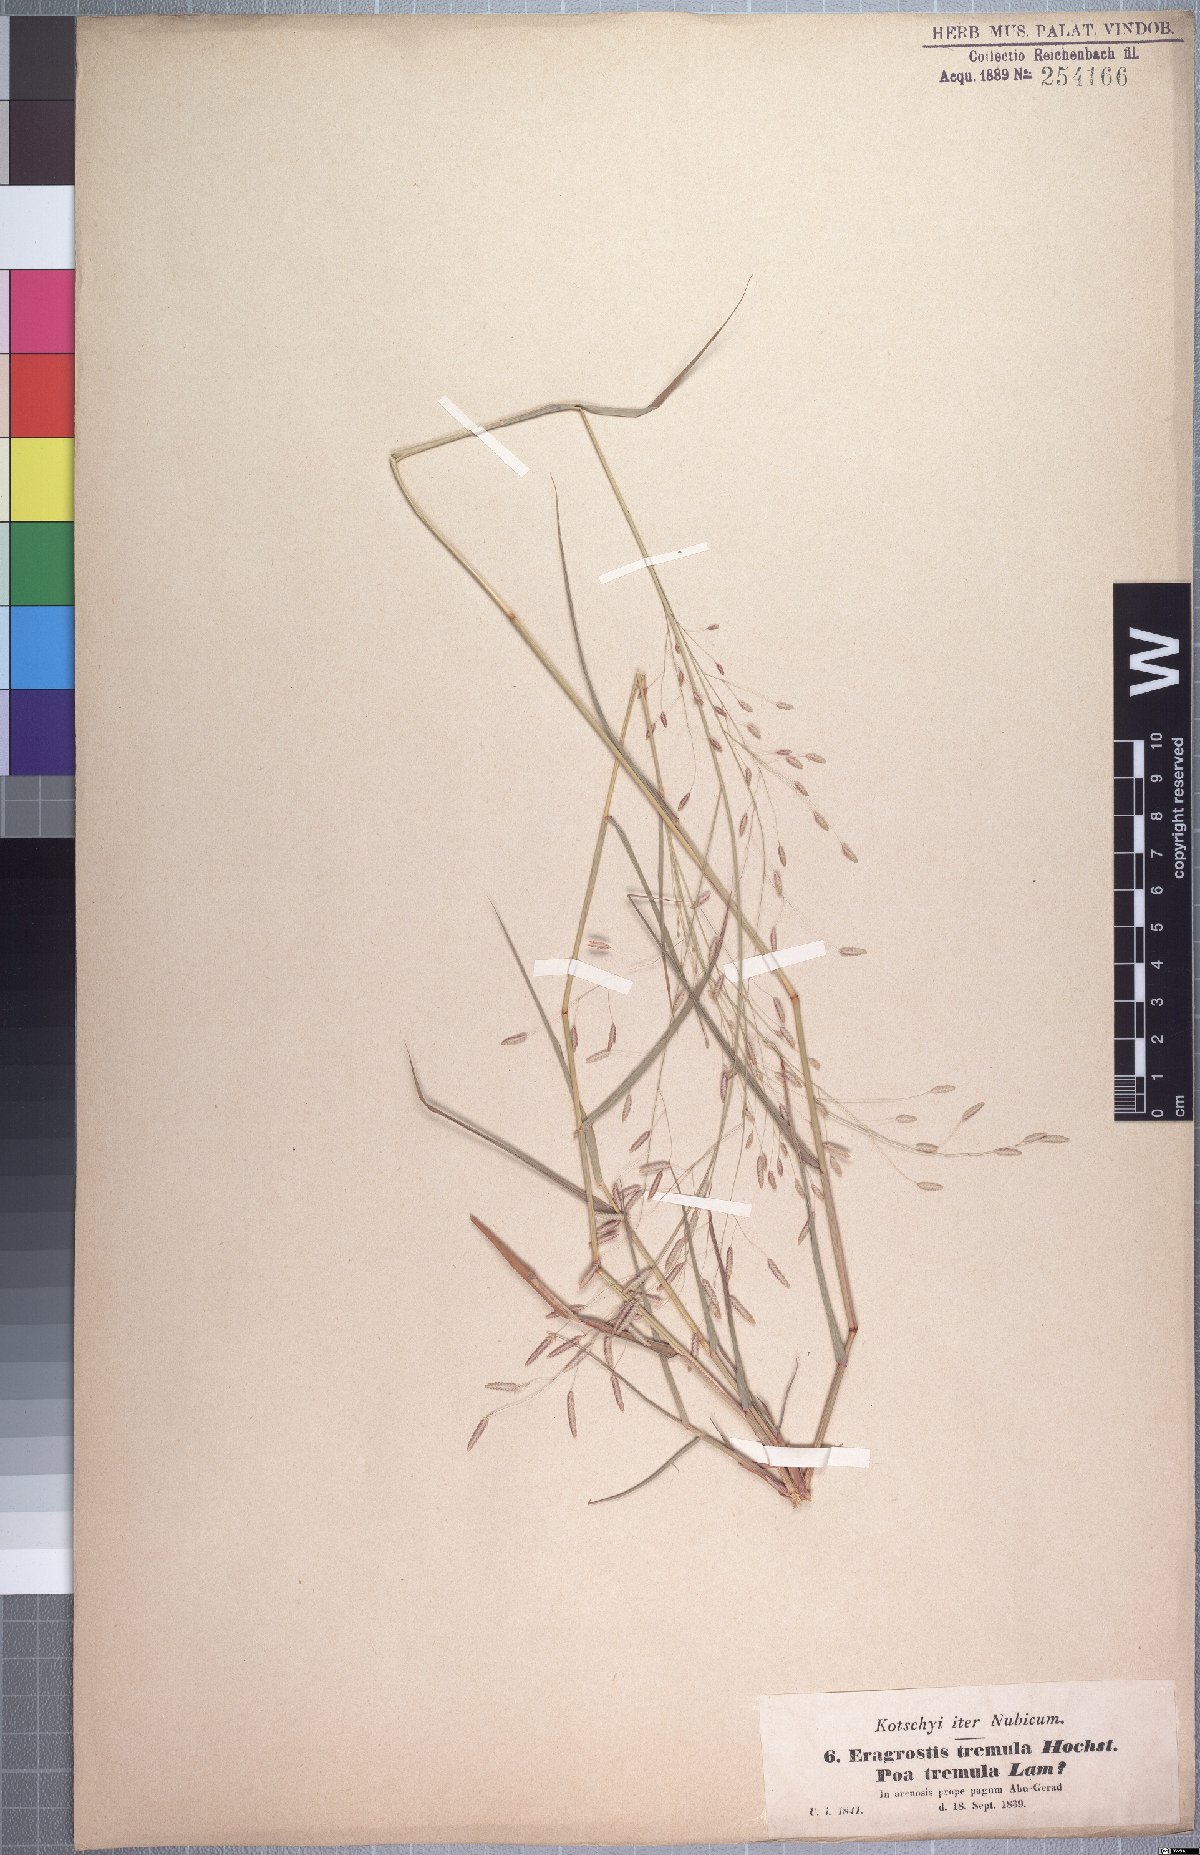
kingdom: Plantae
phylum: Tracheophyta
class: Liliopsida
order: Poales
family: Poaceae
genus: Eragrostis
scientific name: Eragrostis tremula
